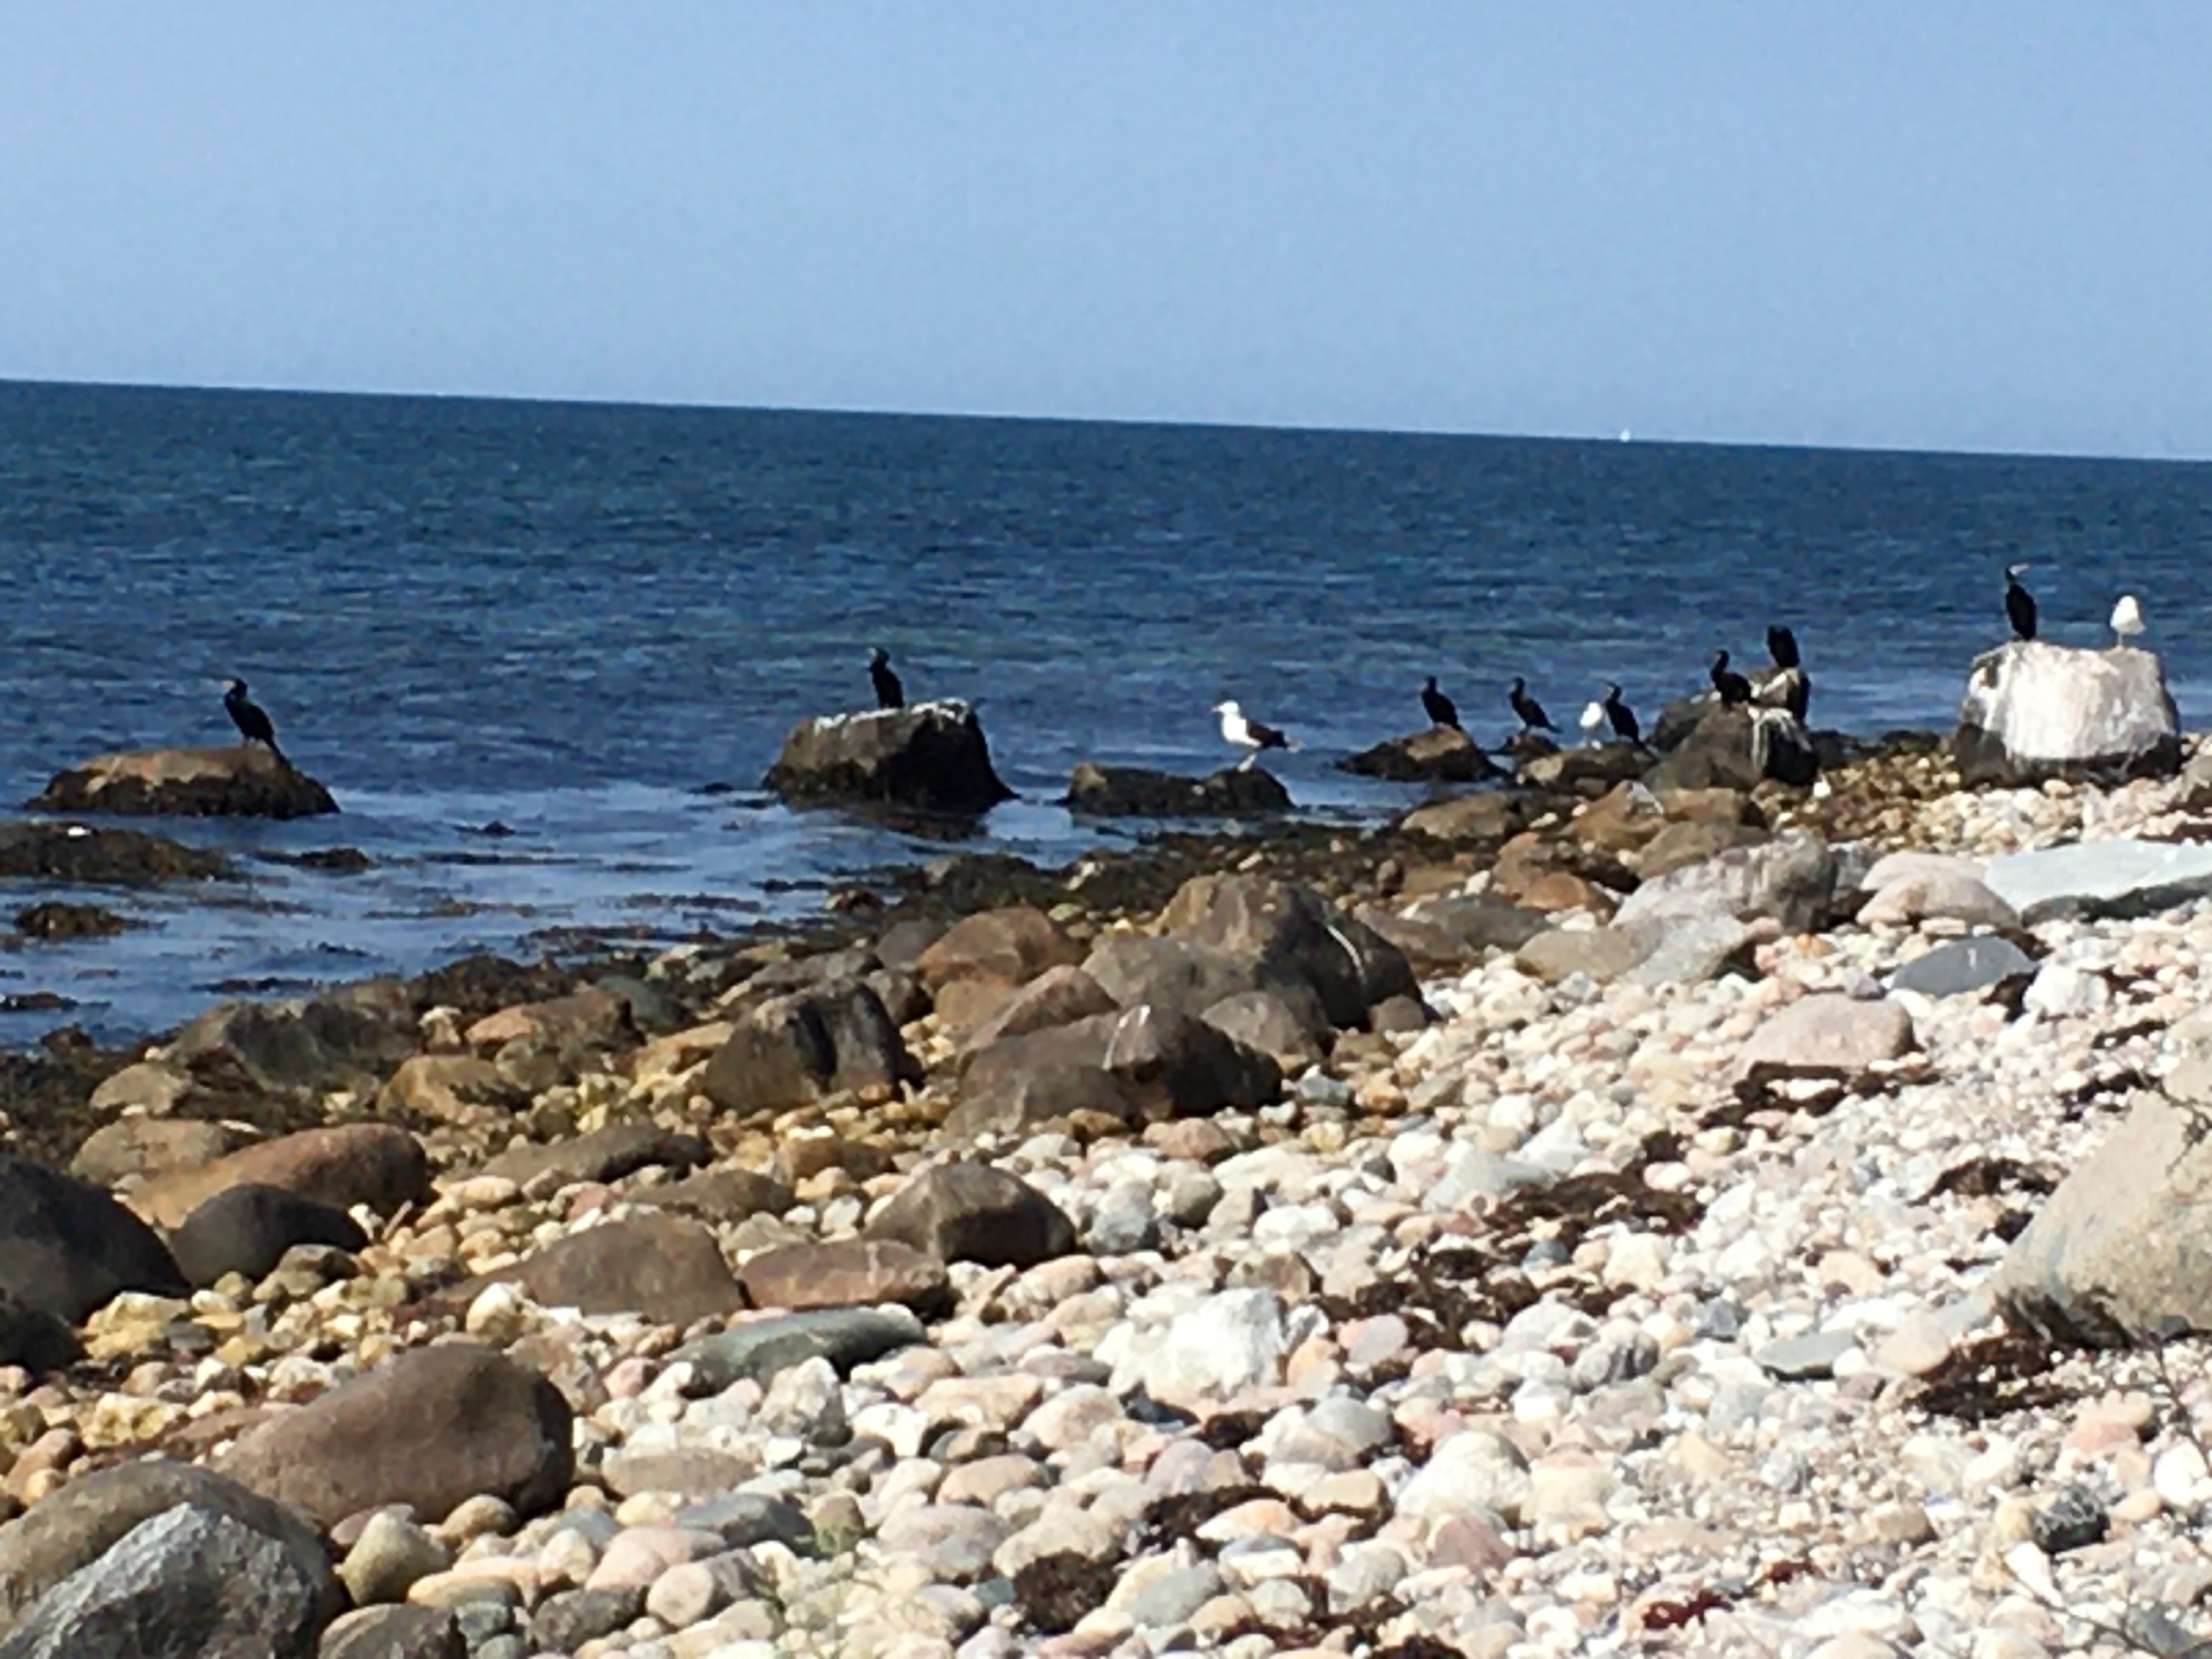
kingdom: Animalia
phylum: Chordata
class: Aves
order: Suliformes
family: Phalacrocoracidae
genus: Phalacrocorax
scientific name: Phalacrocorax carbo
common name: Skarv
